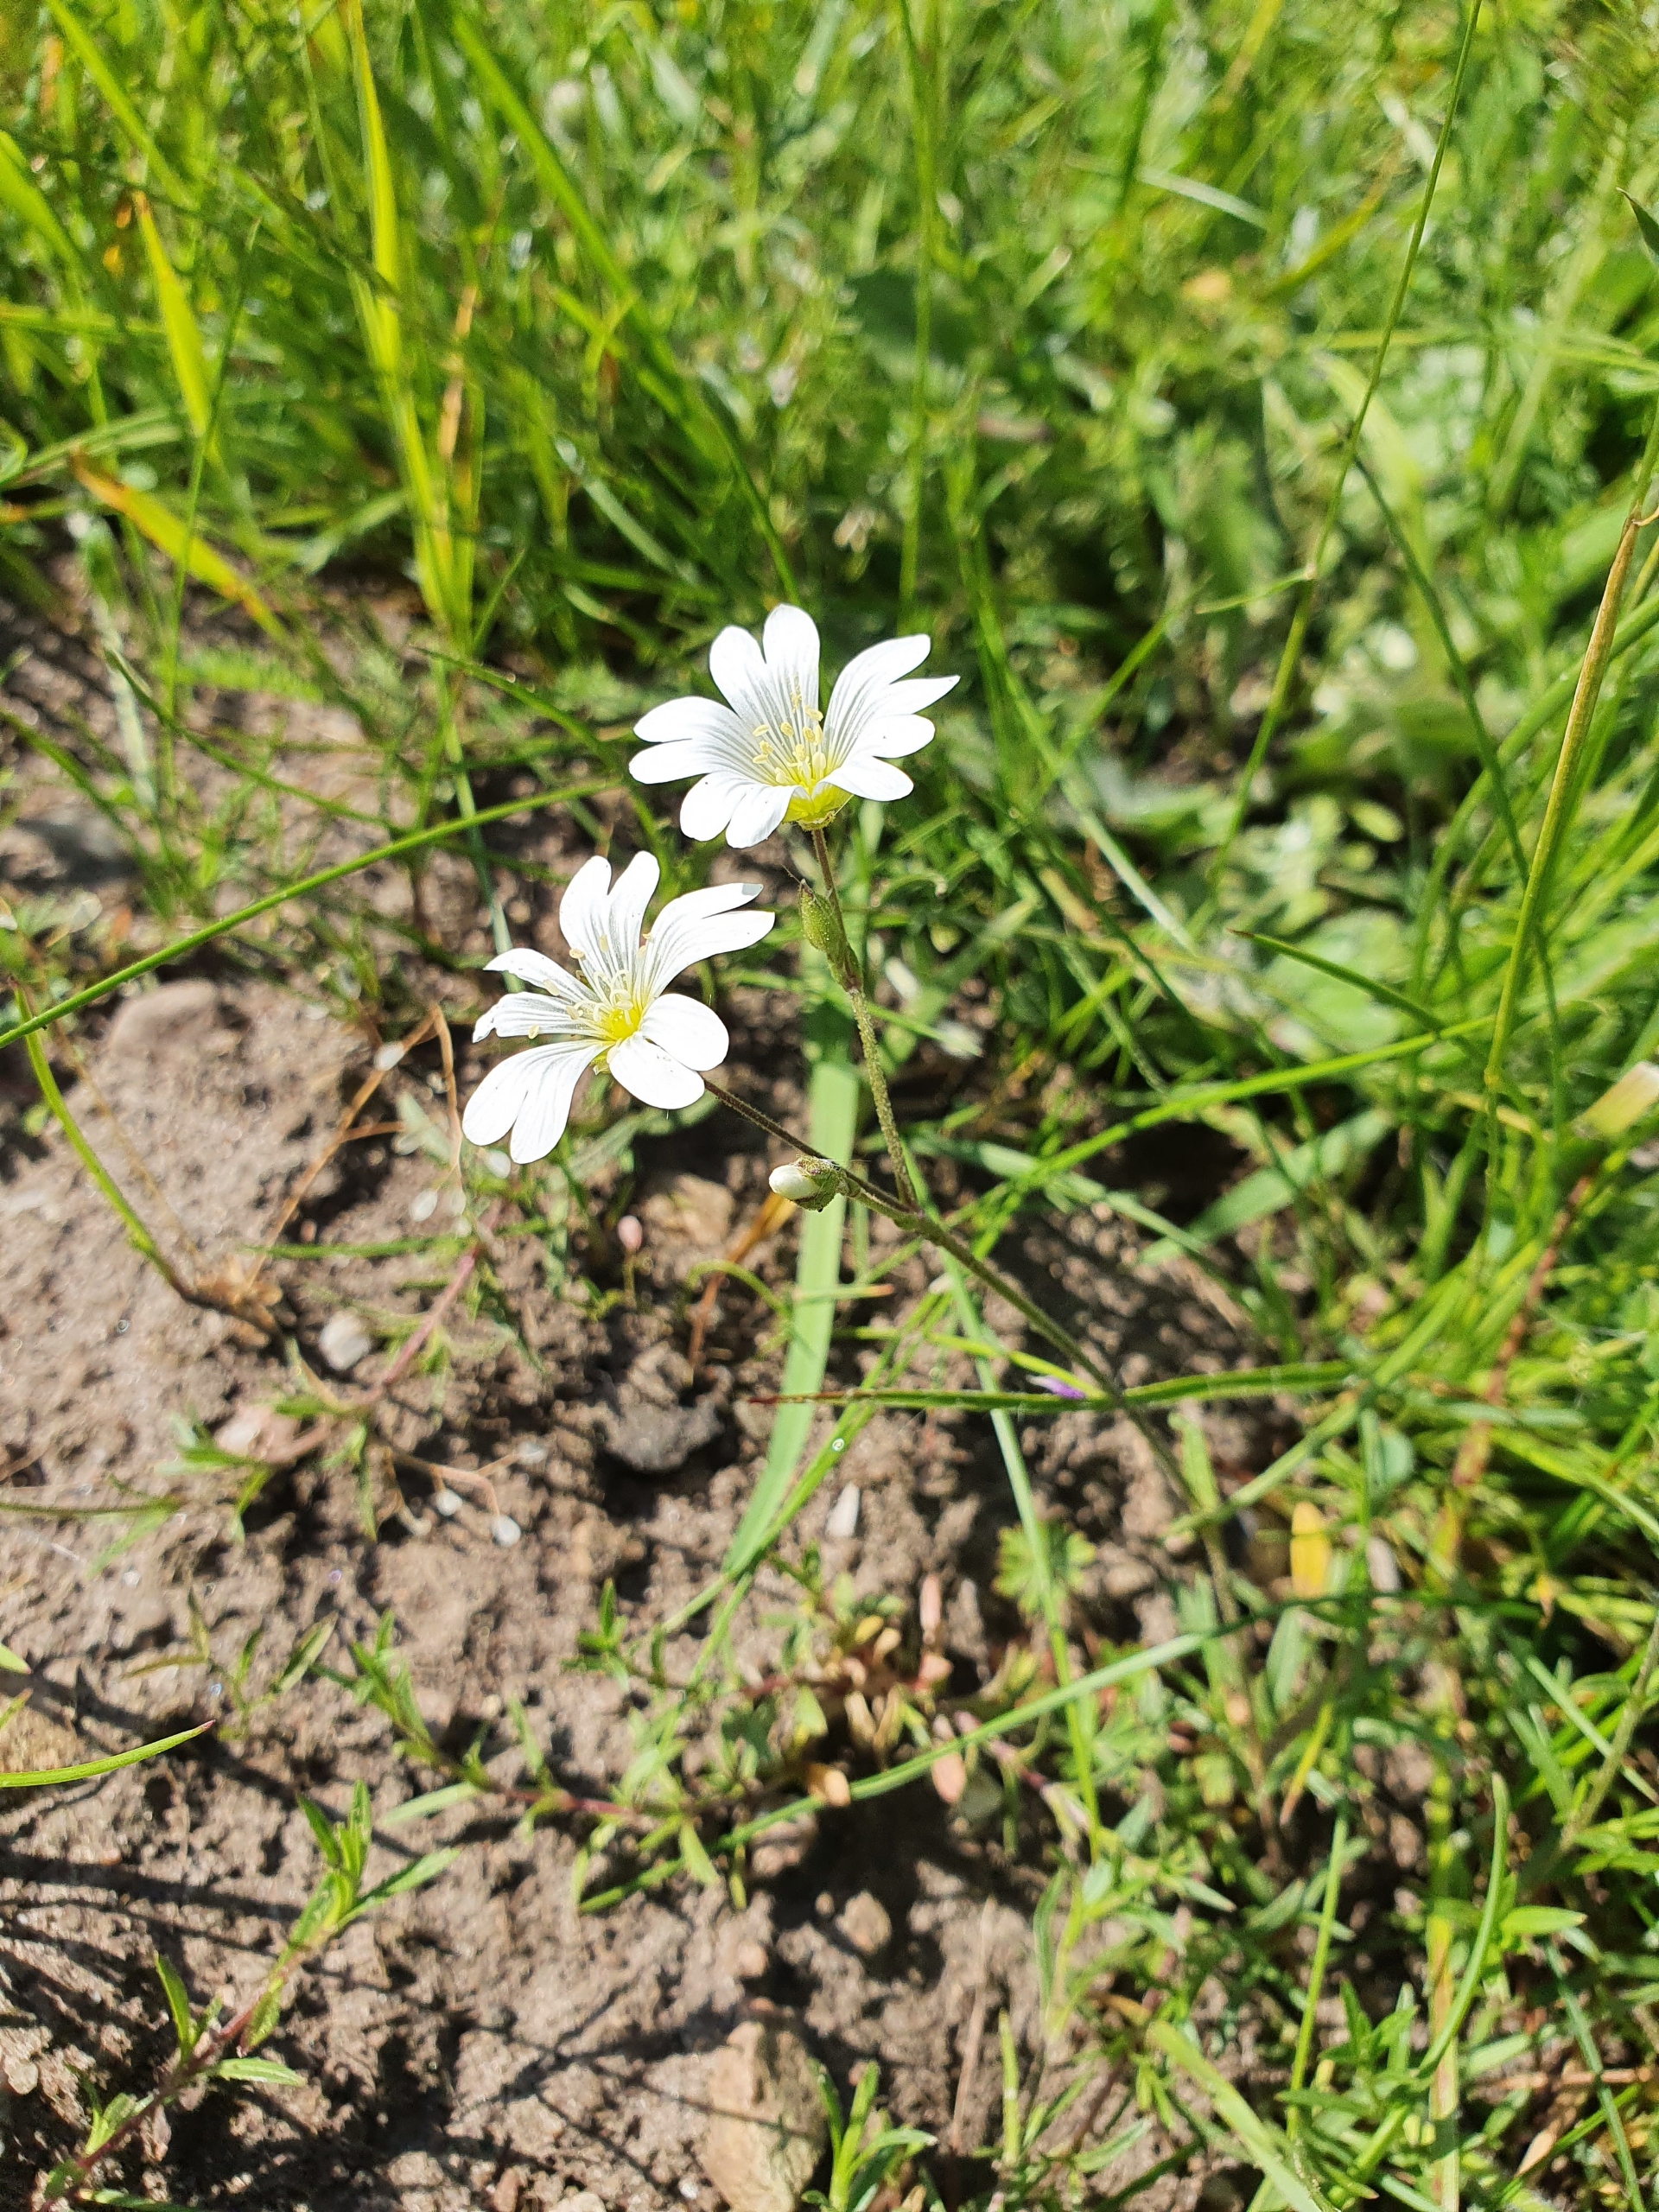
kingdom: Plantae
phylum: Tracheophyta
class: Magnoliopsida
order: Caryophyllales
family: Caryophyllaceae
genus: Cerastium
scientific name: Cerastium arvense
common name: Storblomstret hønsetarm
